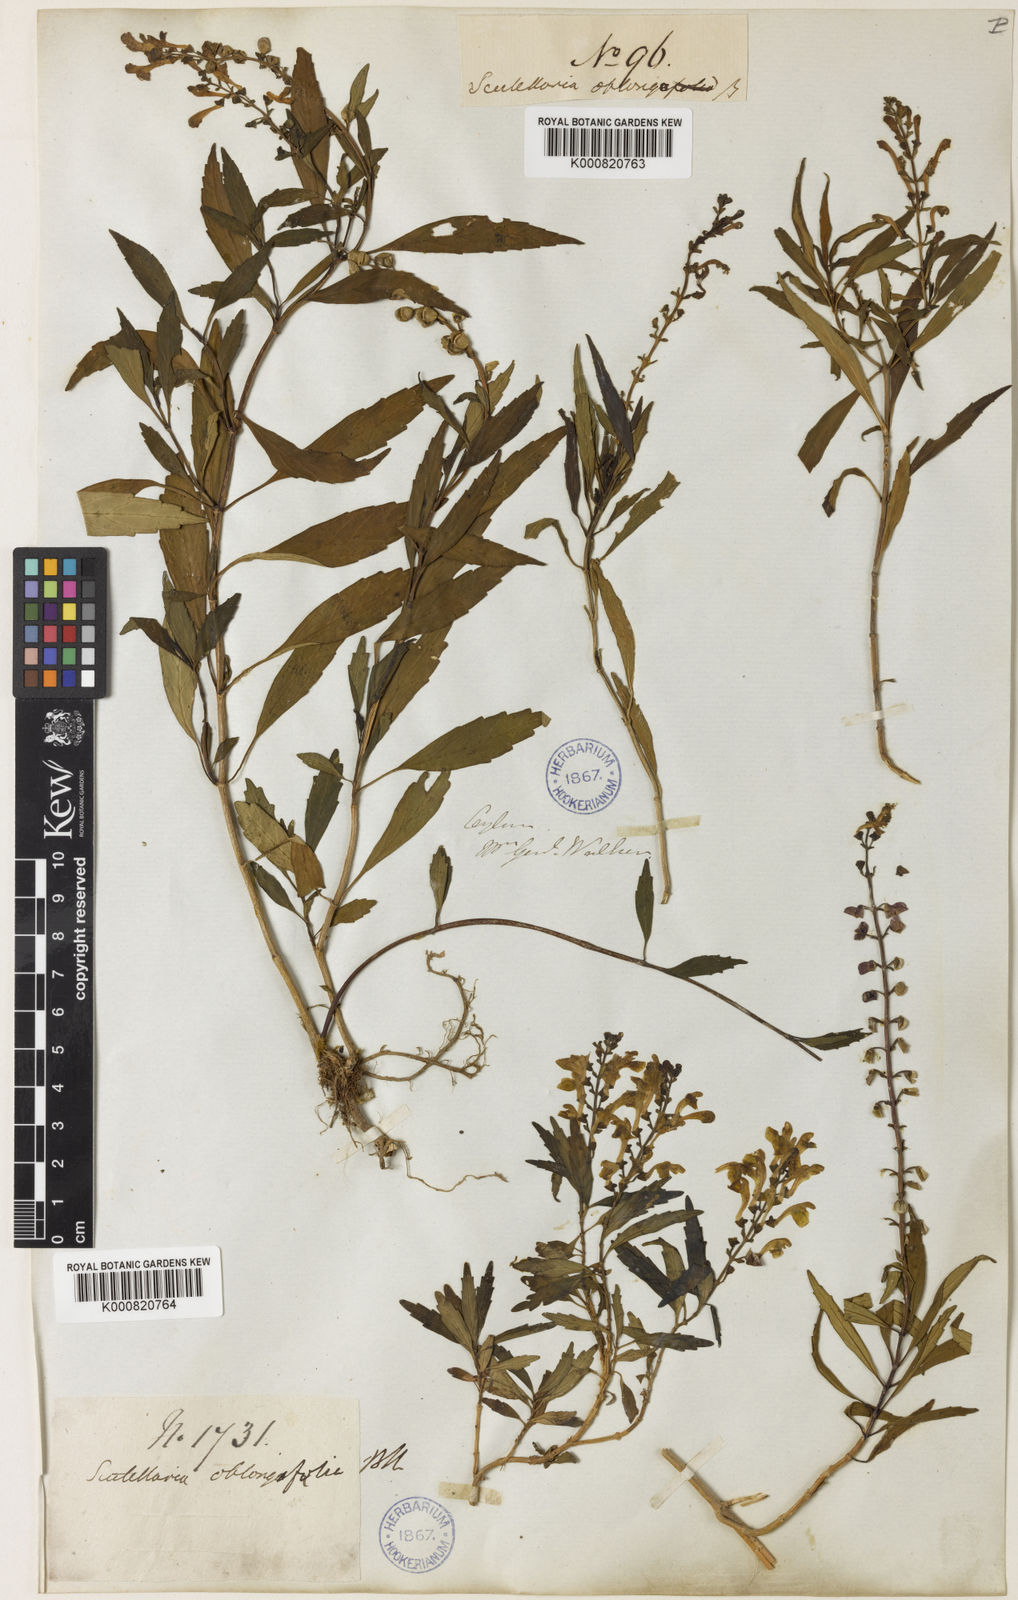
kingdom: Plantae
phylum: Tracheophyta
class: Magnoliopsida
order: Lamiales
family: Lamiaceae
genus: Scutellaria
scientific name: Scutellaria oblonga
